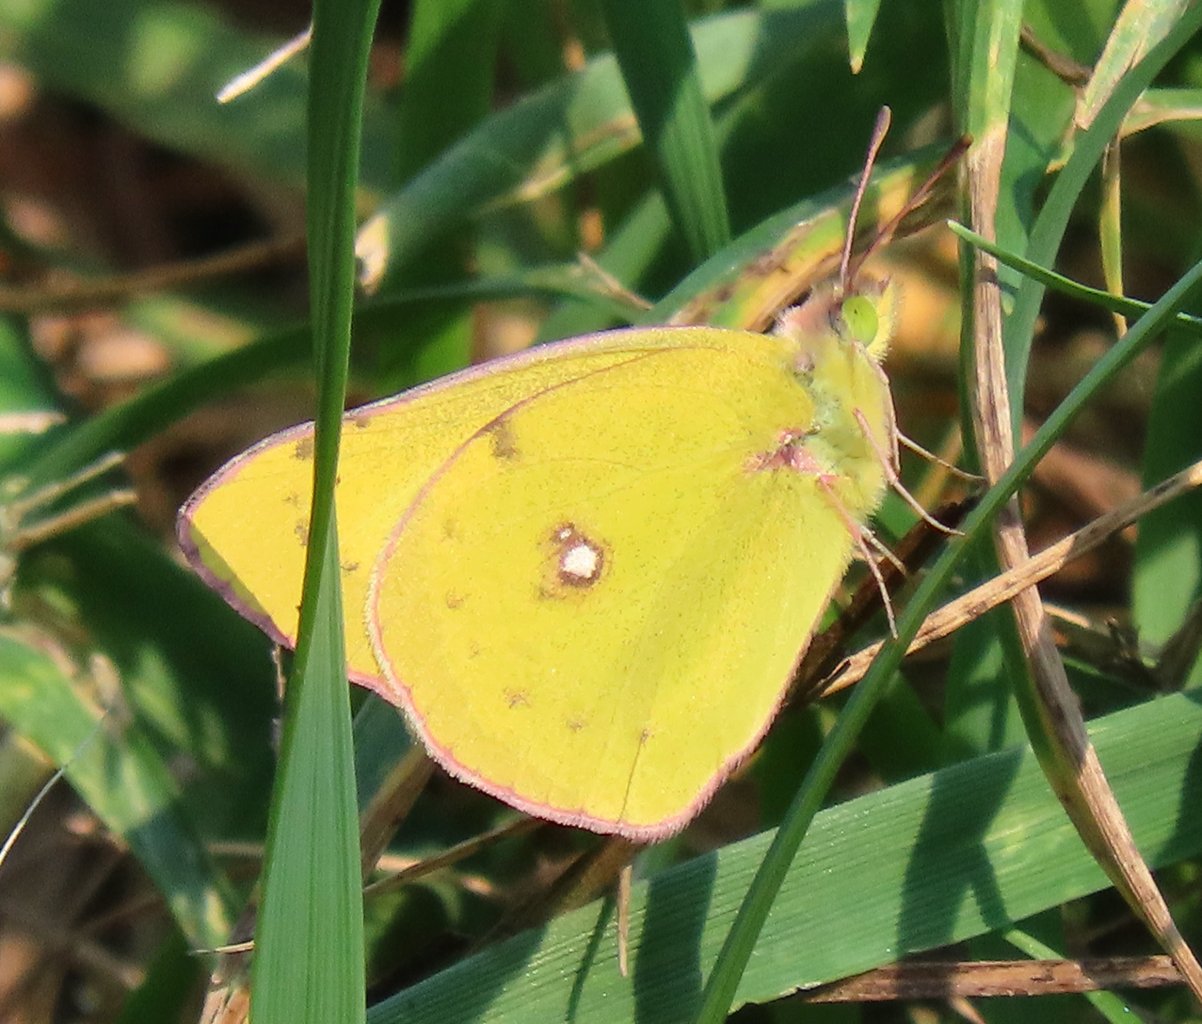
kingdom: Animalia
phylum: Arthropoda
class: Insecta
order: Lepidoptera
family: Pieridae
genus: Colias
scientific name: Colias eurytheme
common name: Orange Sulphur
